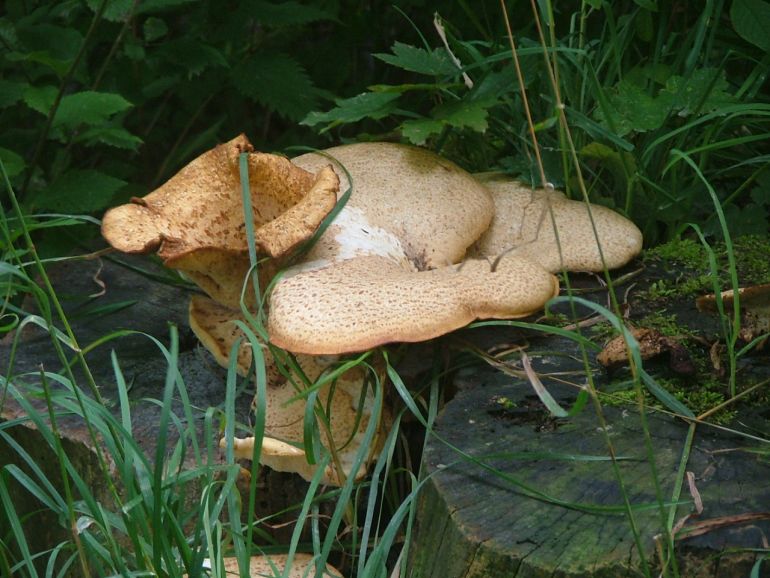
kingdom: Fungi
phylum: Basidiomycota
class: Agaricomycetes
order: Polyporales
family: Polyporaceae
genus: Cerioporus
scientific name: Cerioporus squamosus
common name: skællet stilkporesvamp
